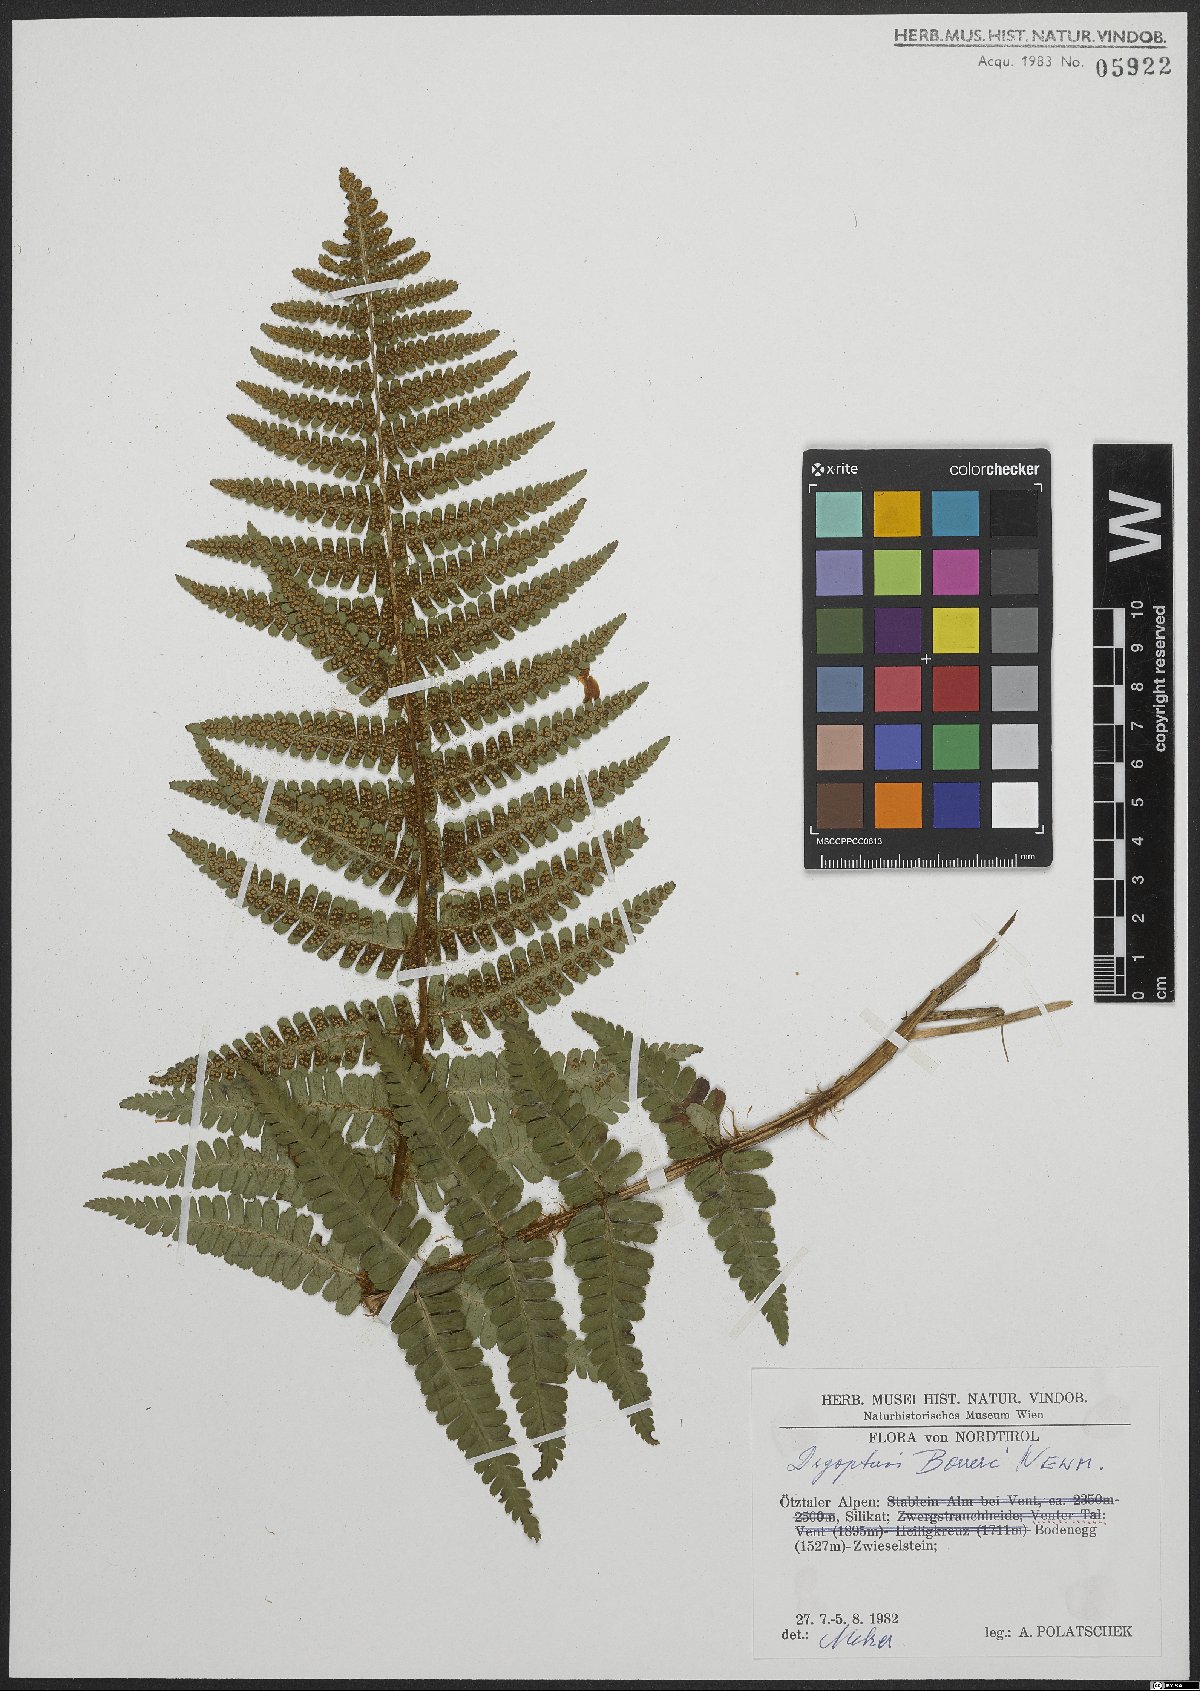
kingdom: Plantae
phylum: Tracheophyta
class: Polypodiopsida
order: Polypodiales
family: Dryopteridaceae
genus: Dryopteris
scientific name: Dryopteris cambrensis
